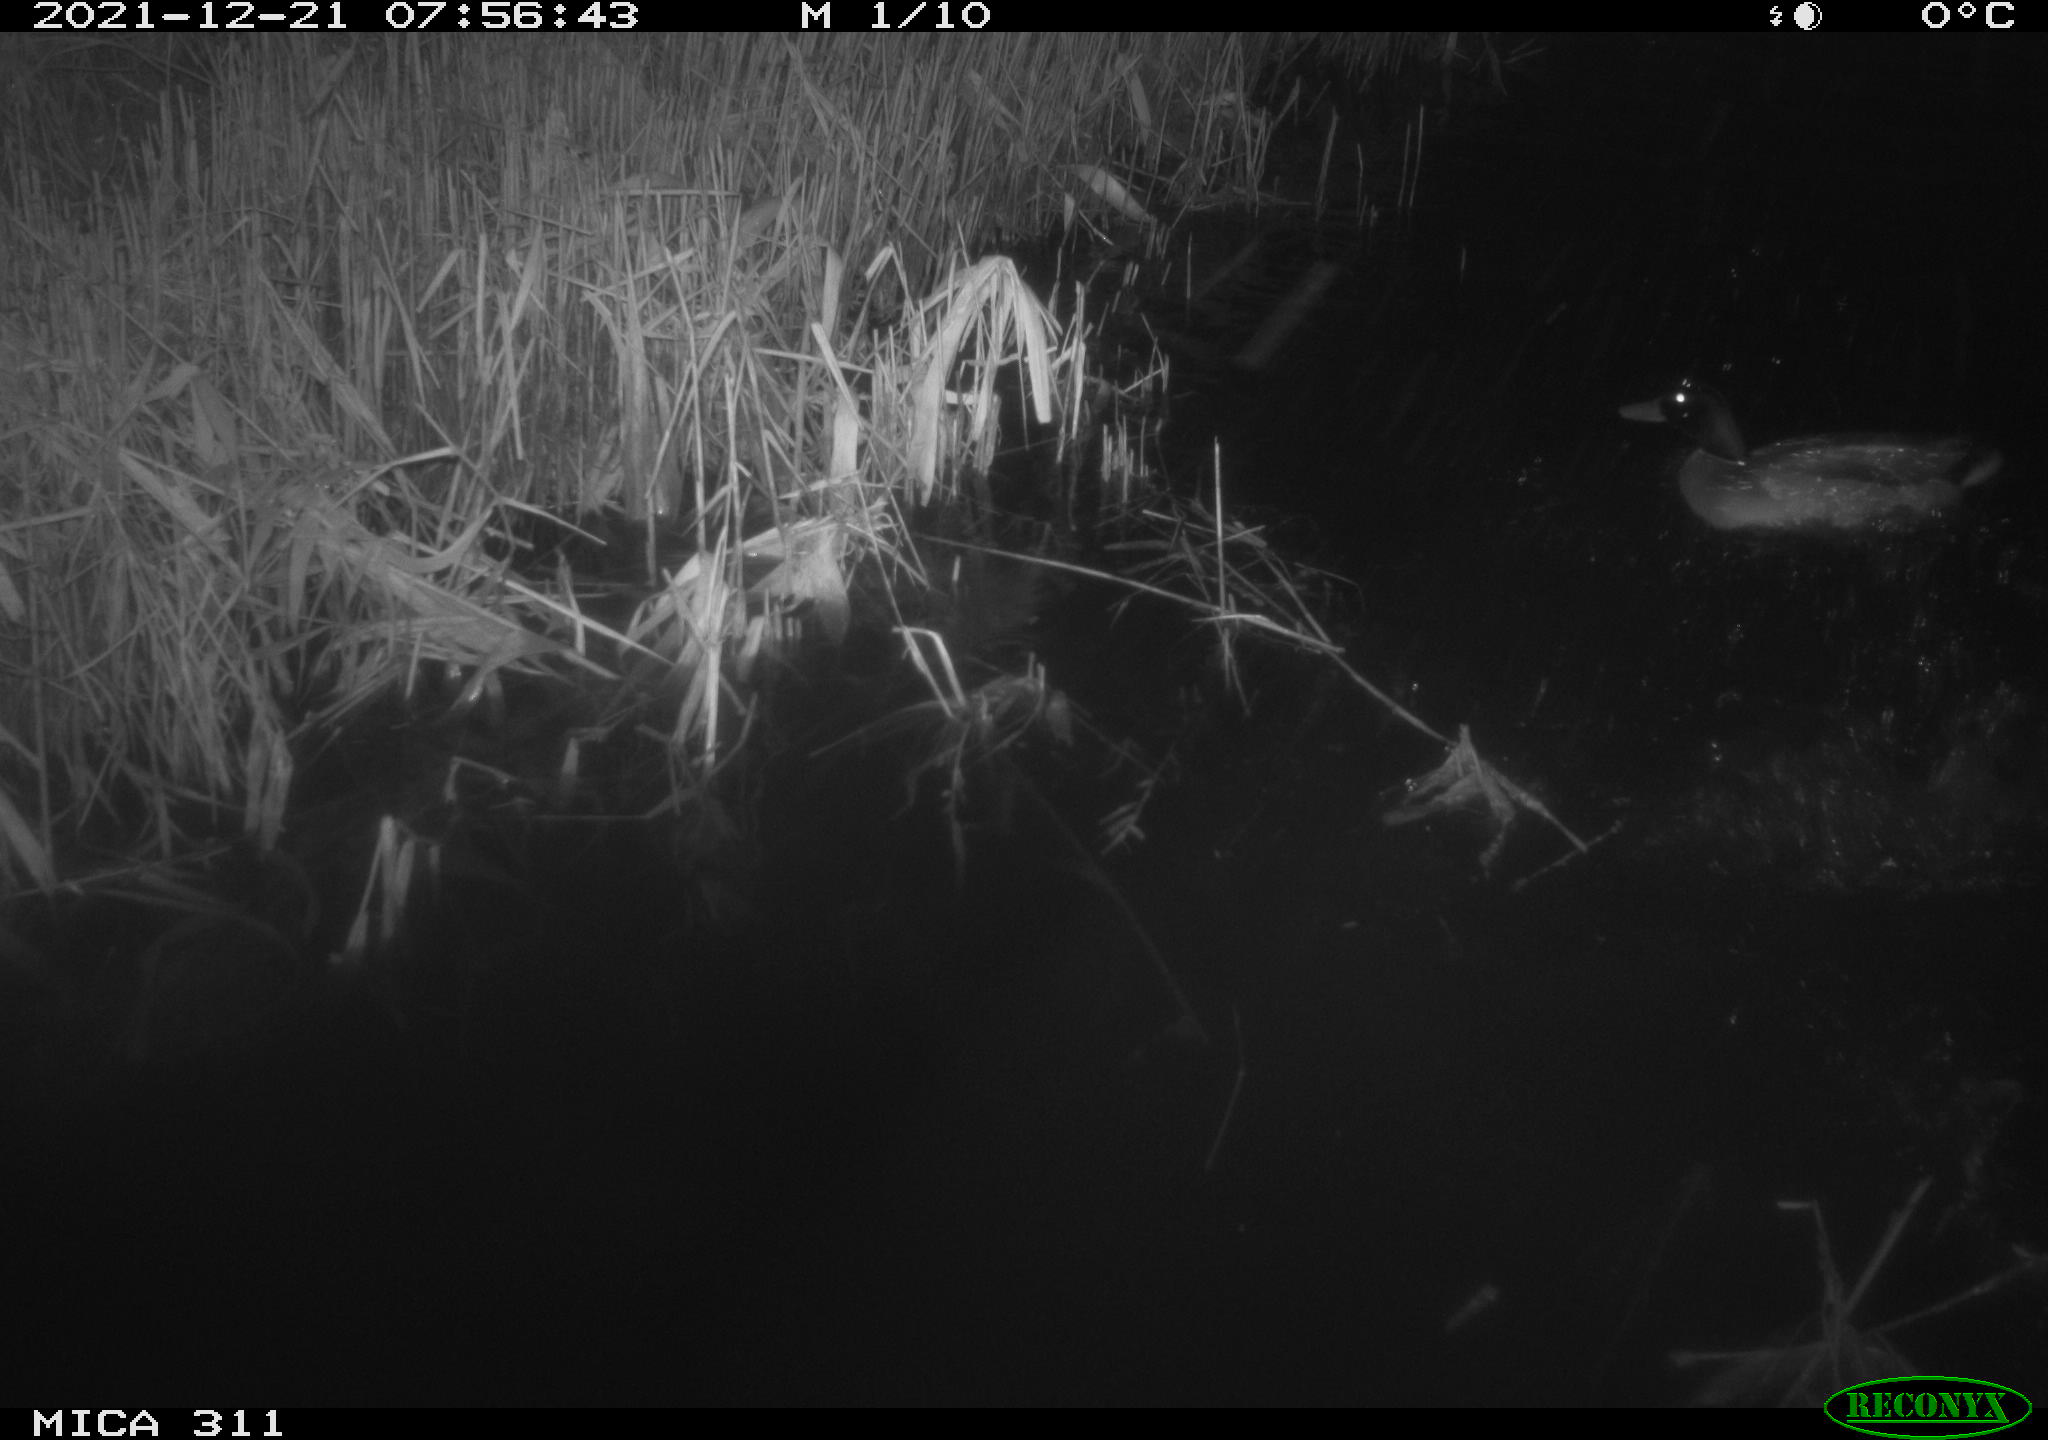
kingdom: Animalia
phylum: Chordata
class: Aves
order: Anseriformes
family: Anatidae
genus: Anas
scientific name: Anas platyrhynchos
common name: Mallard
